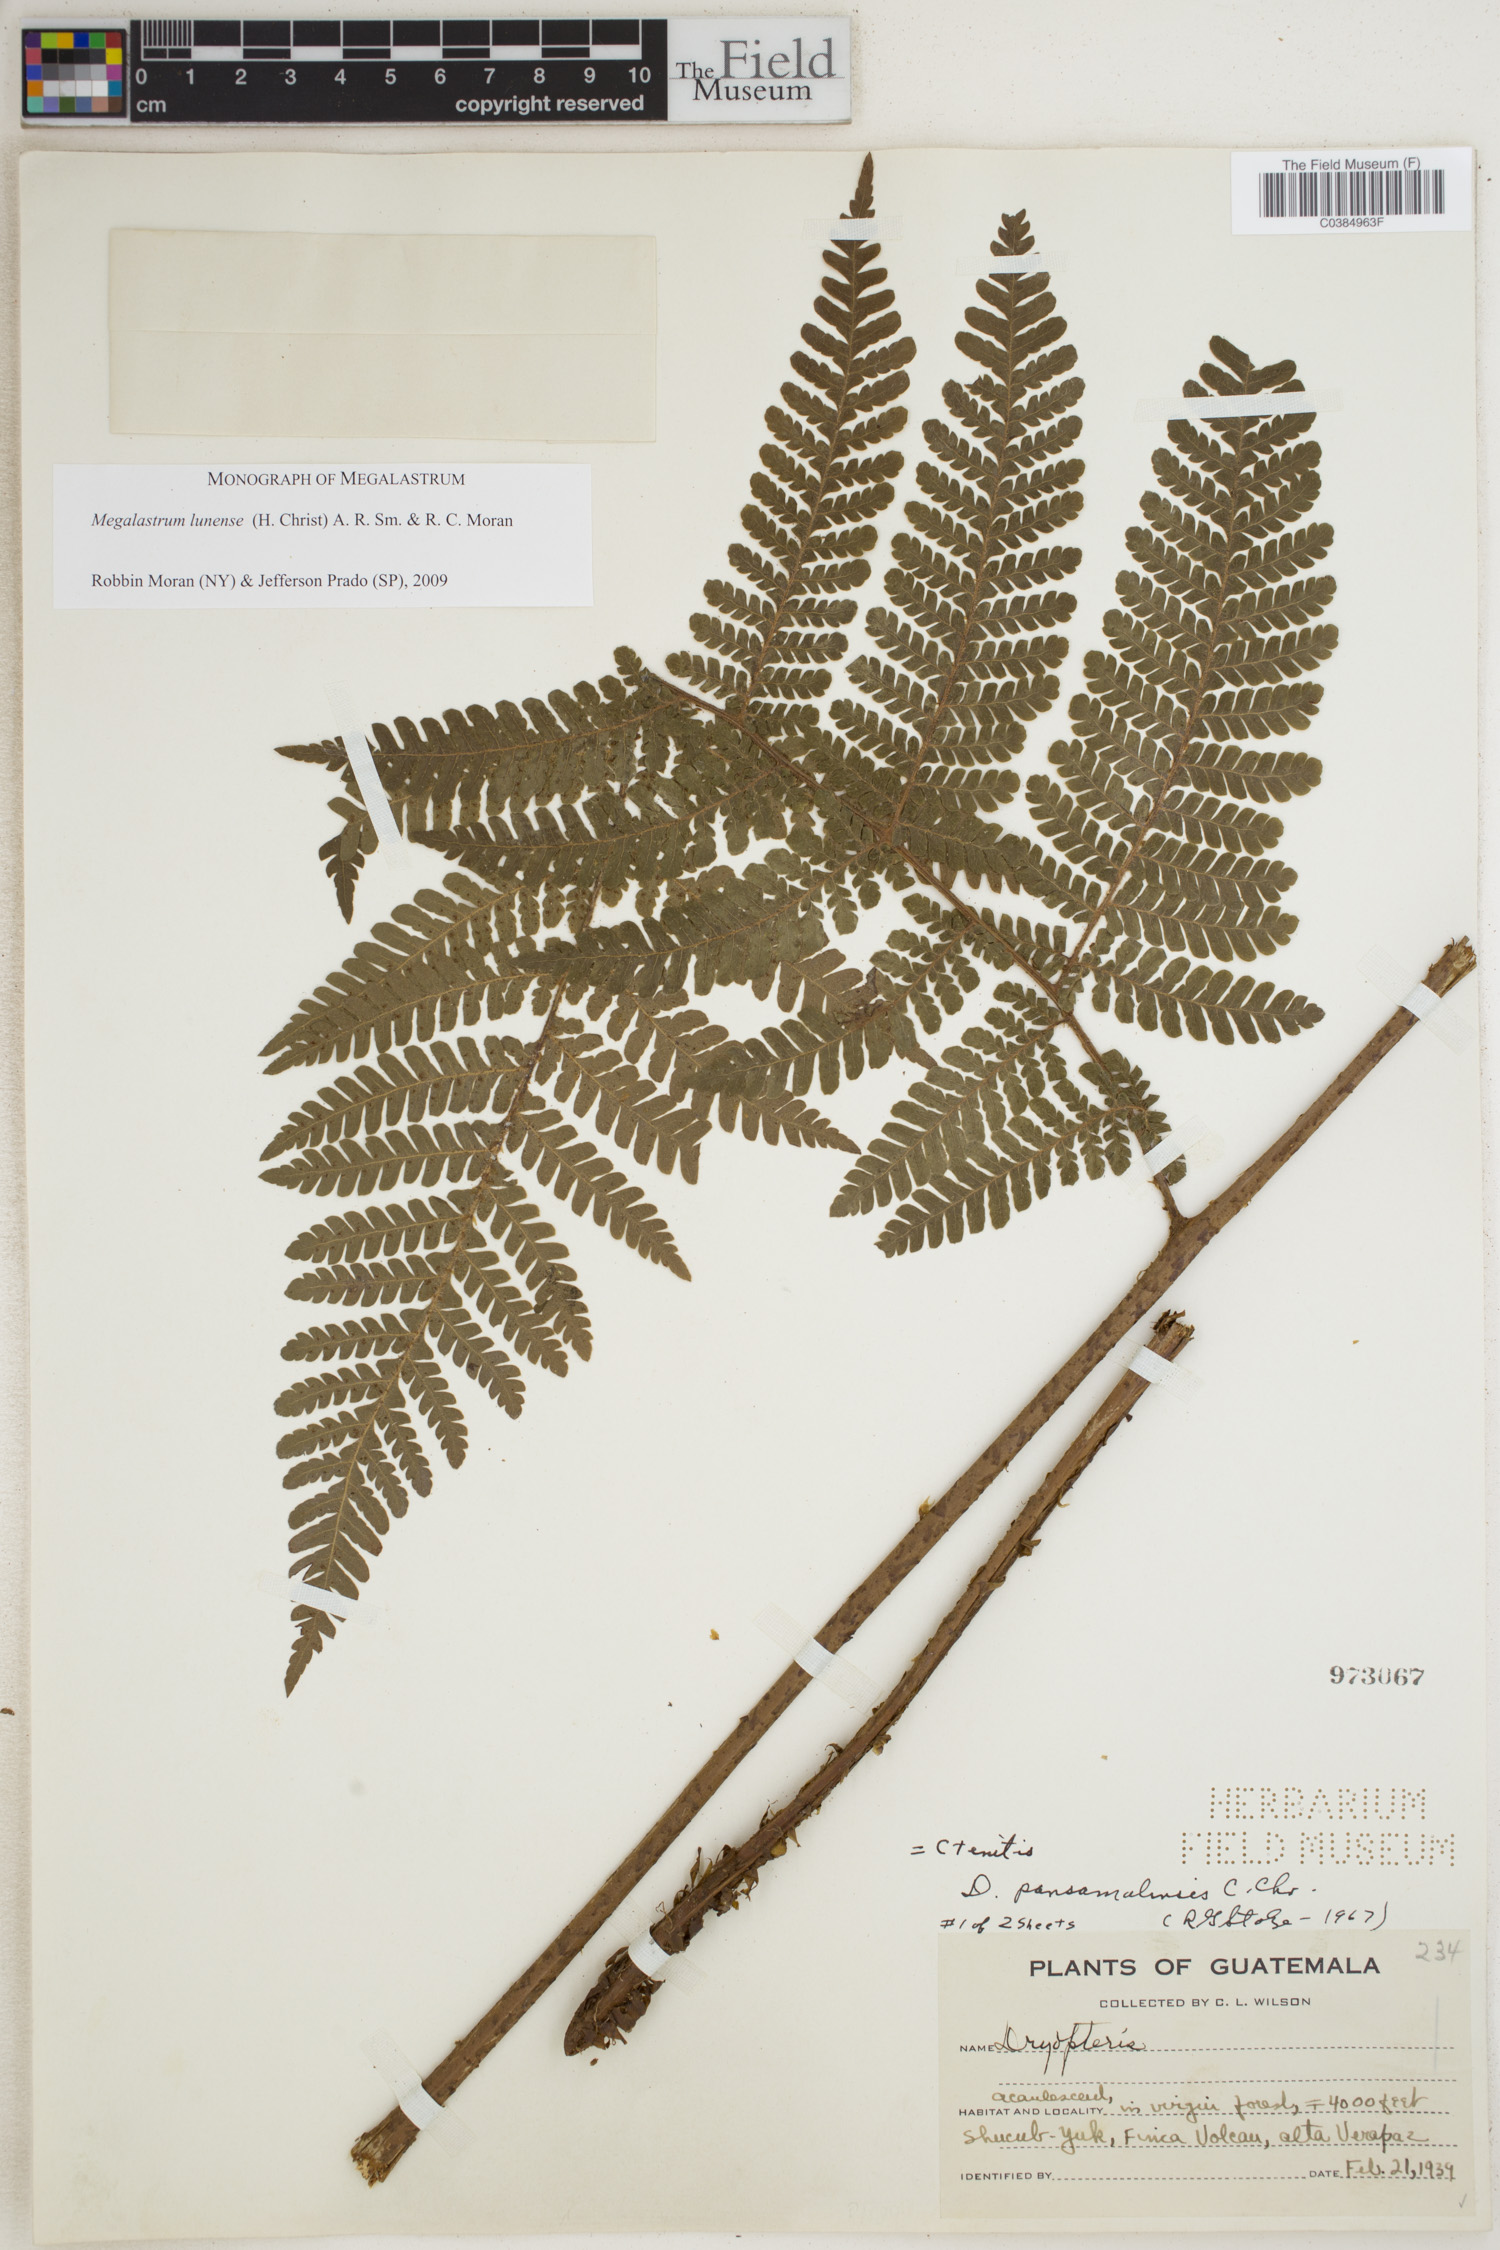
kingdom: Plantae
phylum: Tracheophyta
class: Polypodiopsida
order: Polypodiales
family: Dryopteridaceae
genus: Megalastrum
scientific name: Megalastrum lunense
